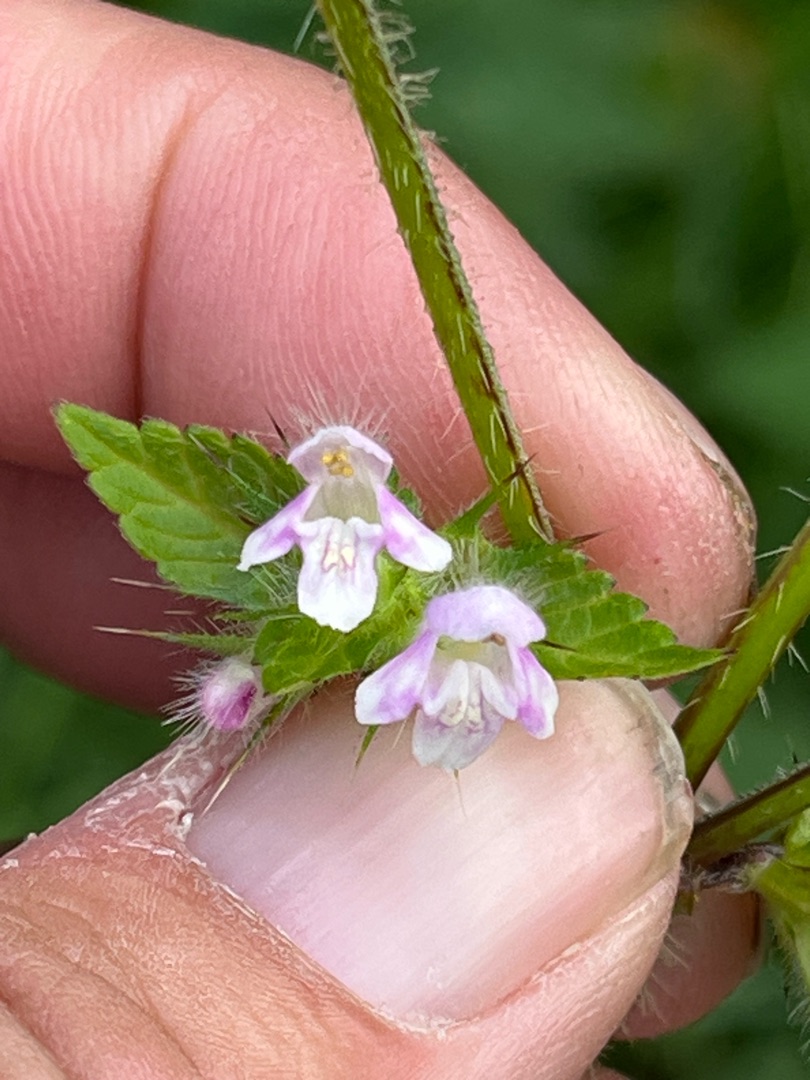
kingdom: Plantae
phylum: Tracheophyta
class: Magnoliopsida
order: Lamiales
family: Lamiaceae
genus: Galeopsis
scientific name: Galeopsis tetrahit
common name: Almindelig hanekro
